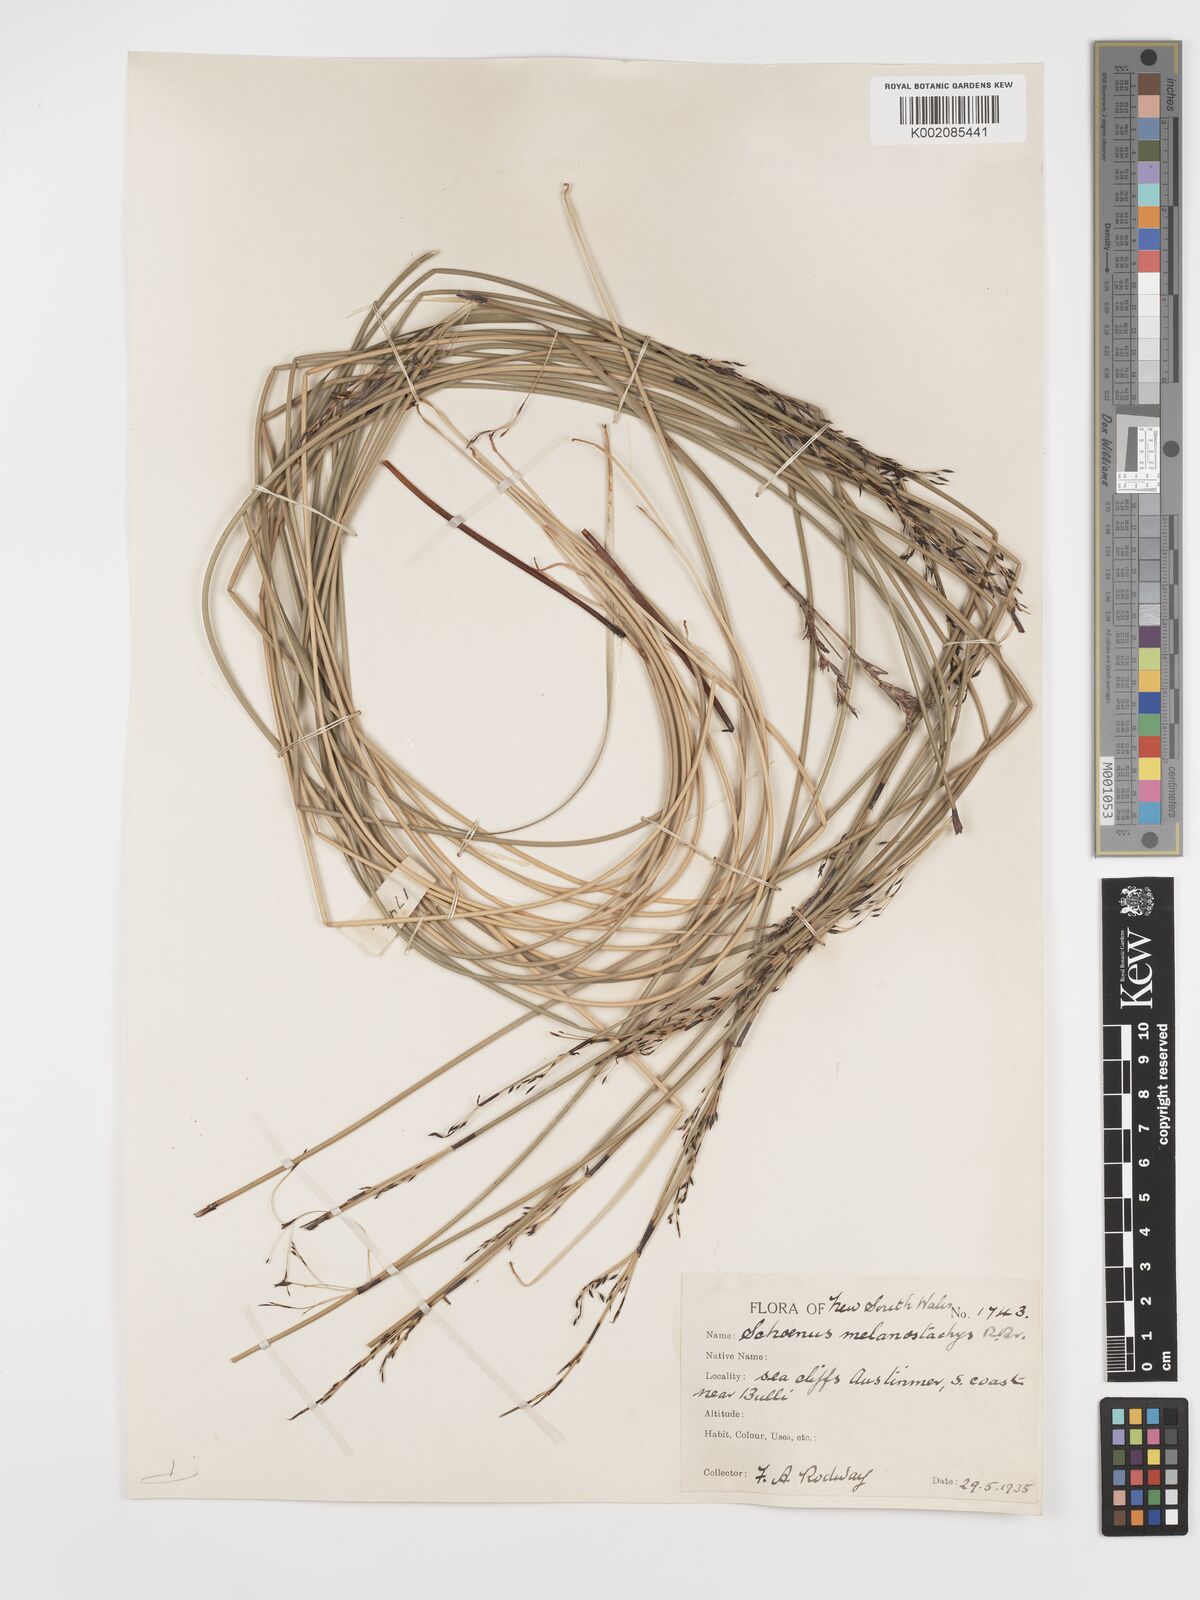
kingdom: Plantae
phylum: Tracheophyta
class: Liliopsida
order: Poales
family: Cyperaceae
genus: Schoenus
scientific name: Schoenus melanostachys
